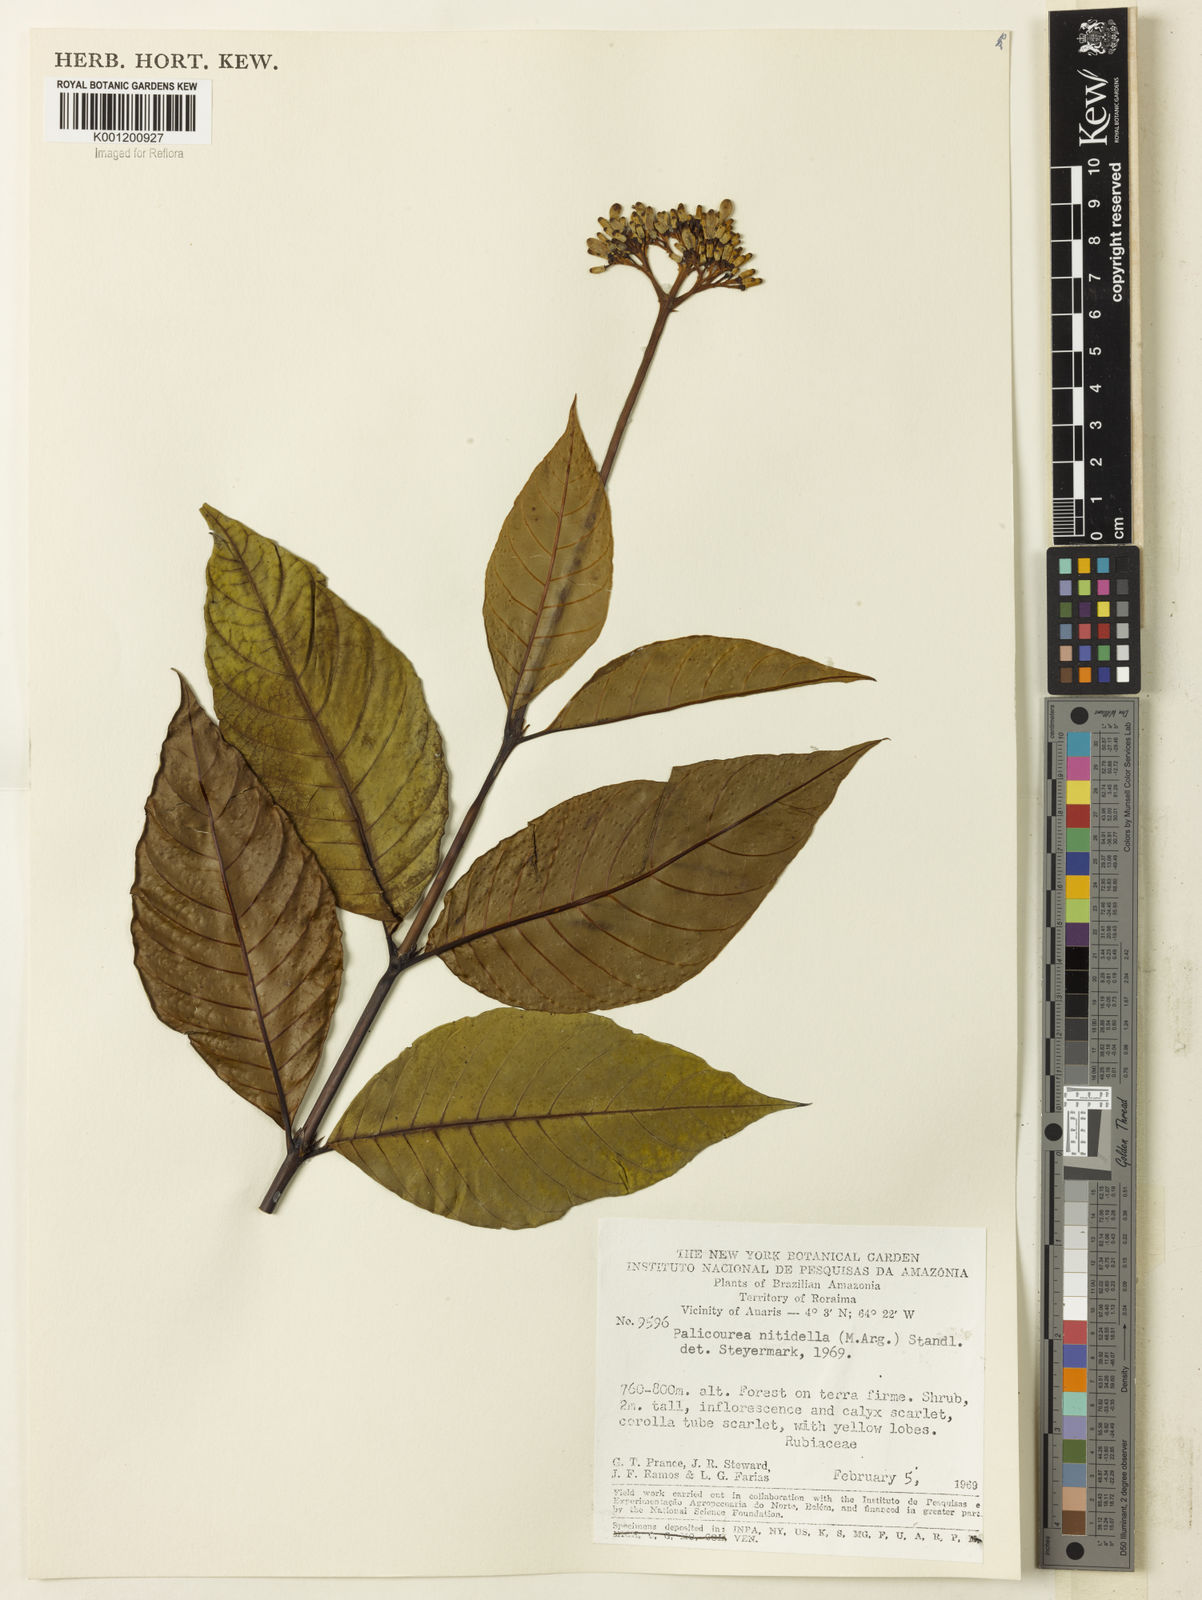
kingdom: Plantae
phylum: Tracheophyta
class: Magnoliopsida
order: Gentianales
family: Rubiaceae
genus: Palicourea
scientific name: Palicourea
